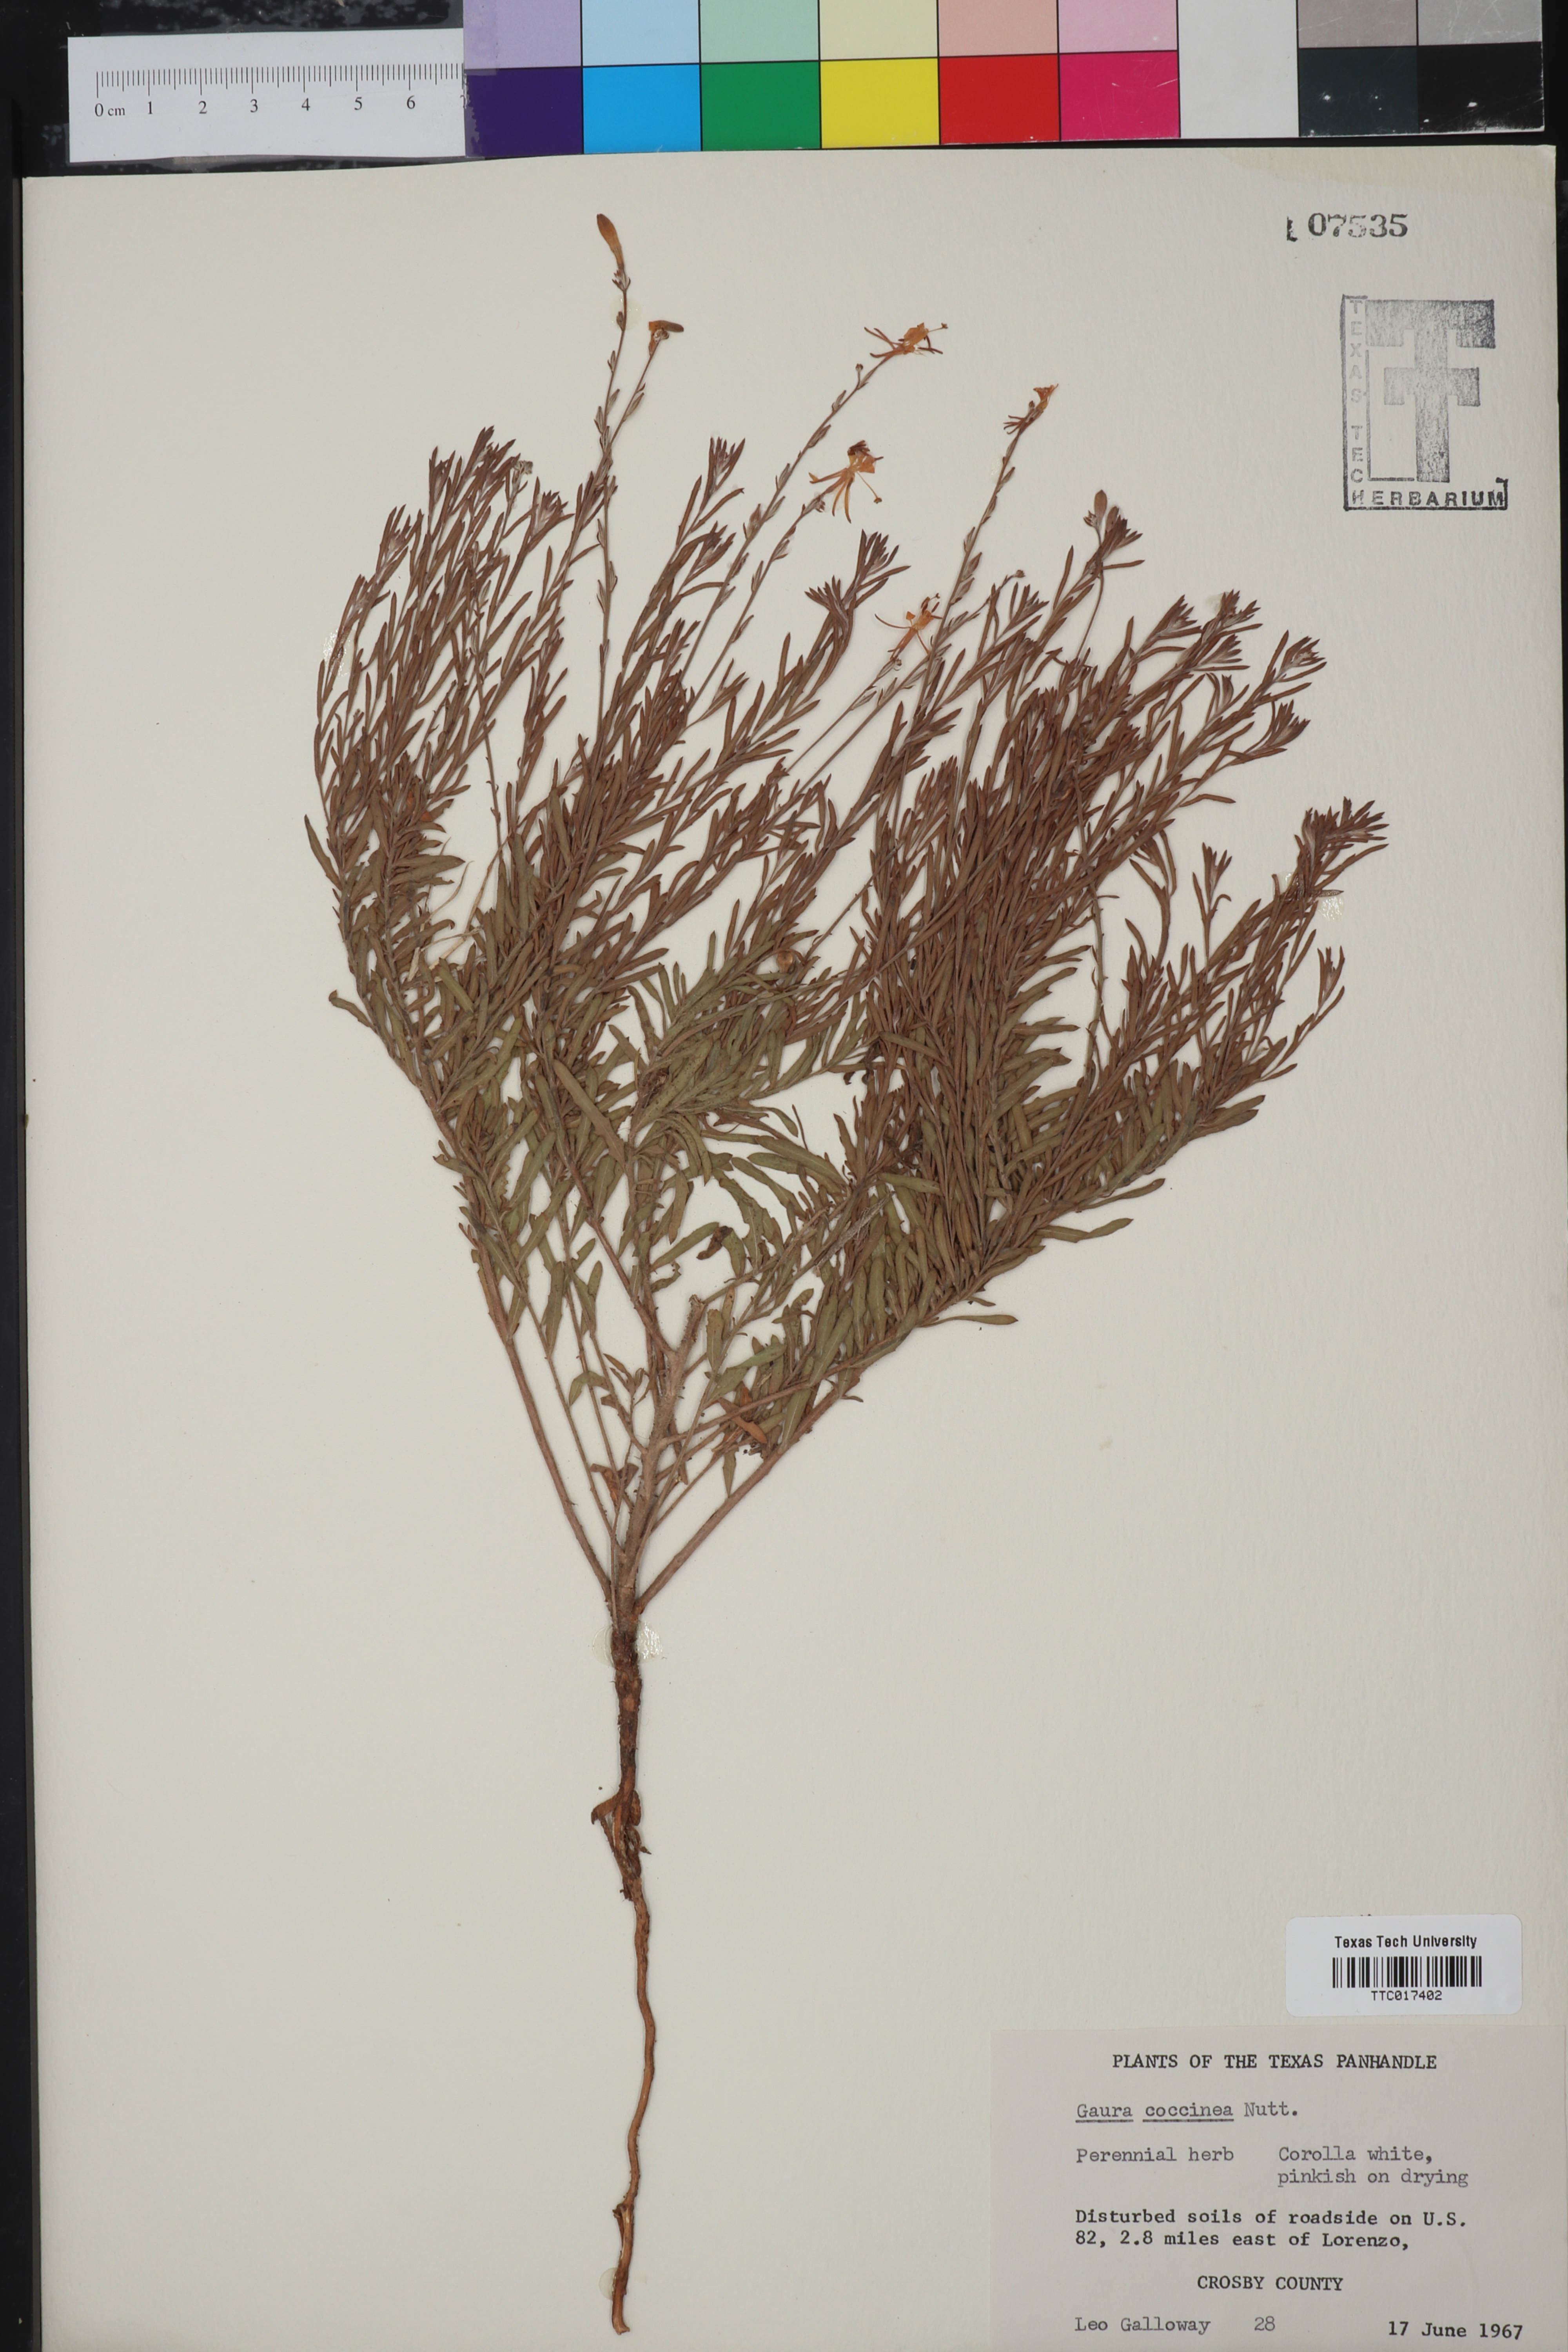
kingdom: Plantae
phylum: Tracheophyta
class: Magnoliopsida
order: Myrtales
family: Onagraceae
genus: Oenothera
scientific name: Oenothera suffrutescens
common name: Scarlet beeblossom
